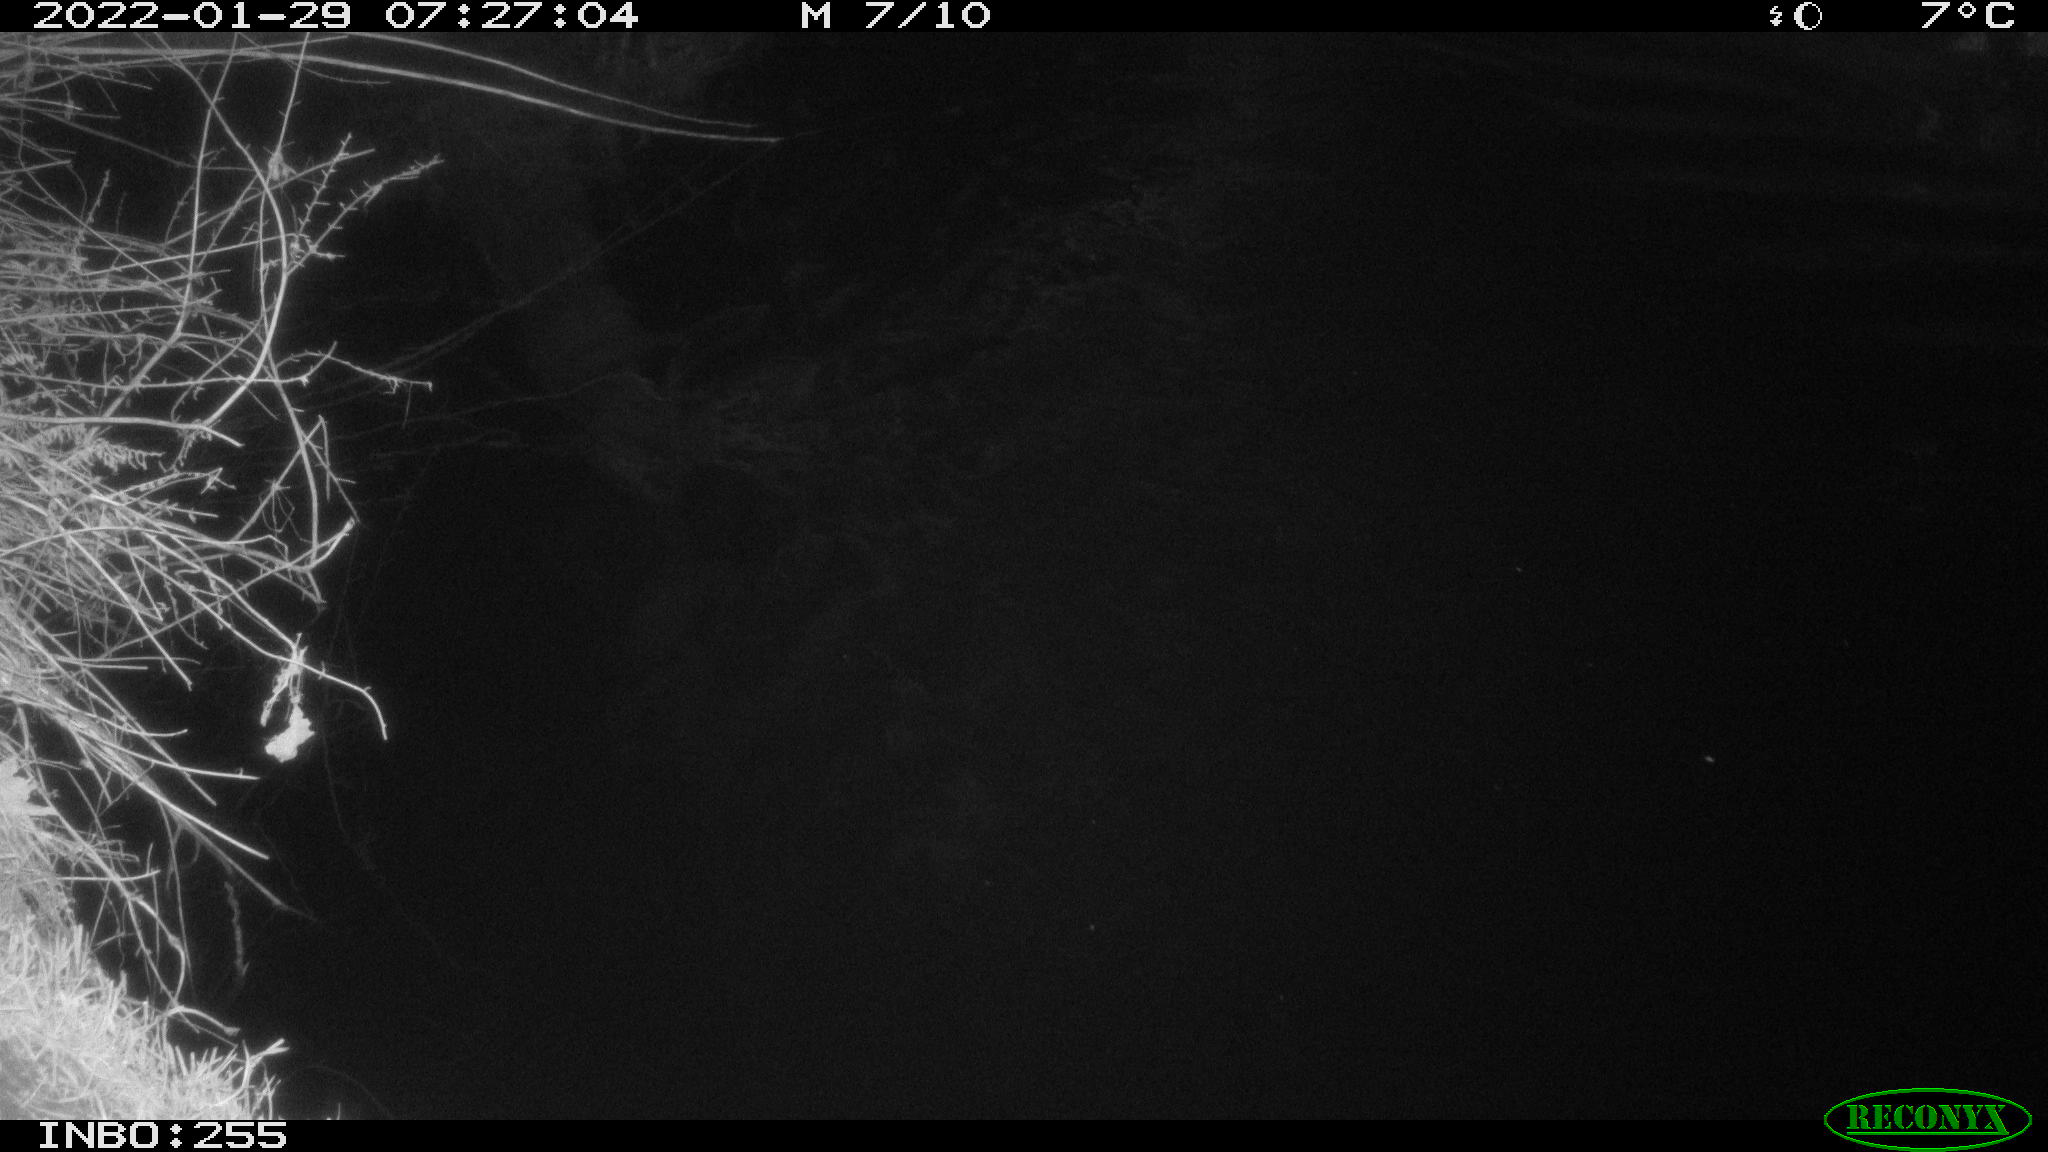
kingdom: Animalia
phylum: Chordata
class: Aves
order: Anseriformes
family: Anatidae
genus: Anas
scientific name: Anas
